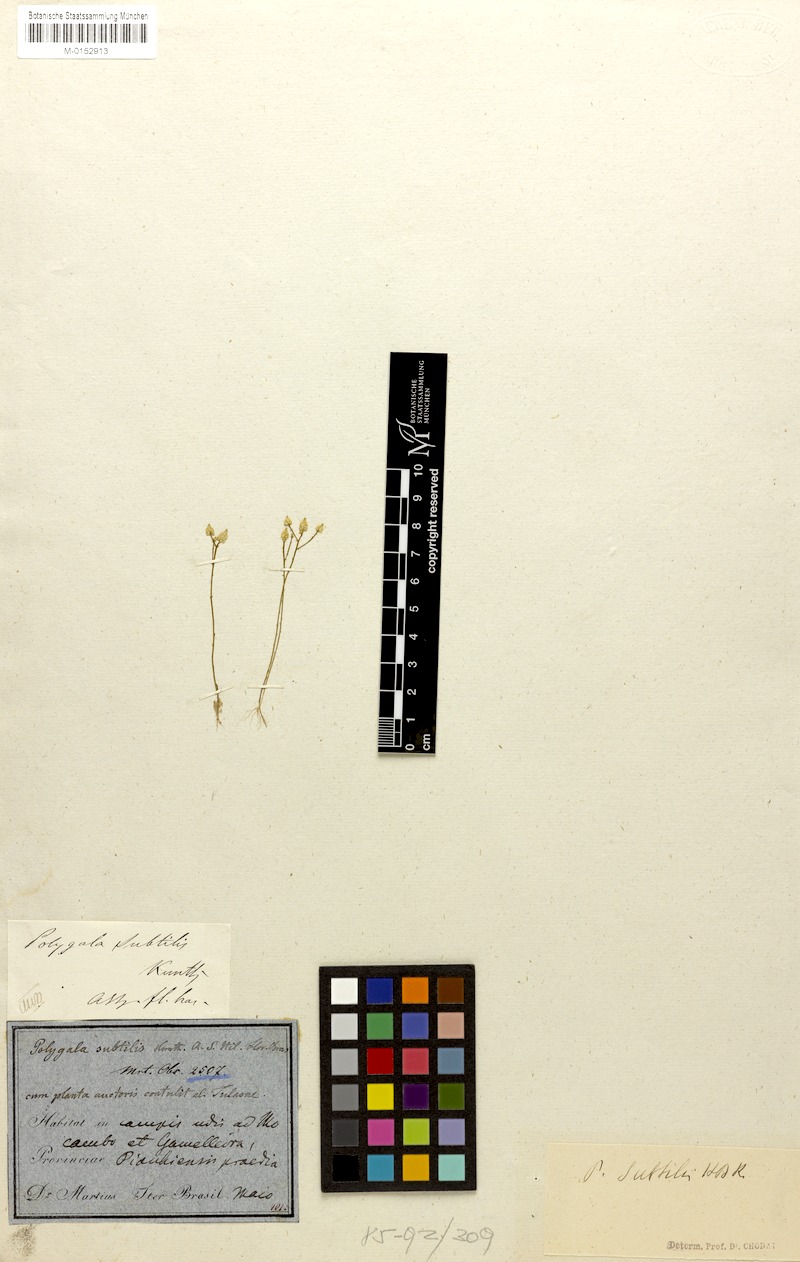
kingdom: Plantae
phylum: Tracheophyta
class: Magnoliopsida
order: Fabales
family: Polygalaceae
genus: Polygala
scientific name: Polygala subtilis
